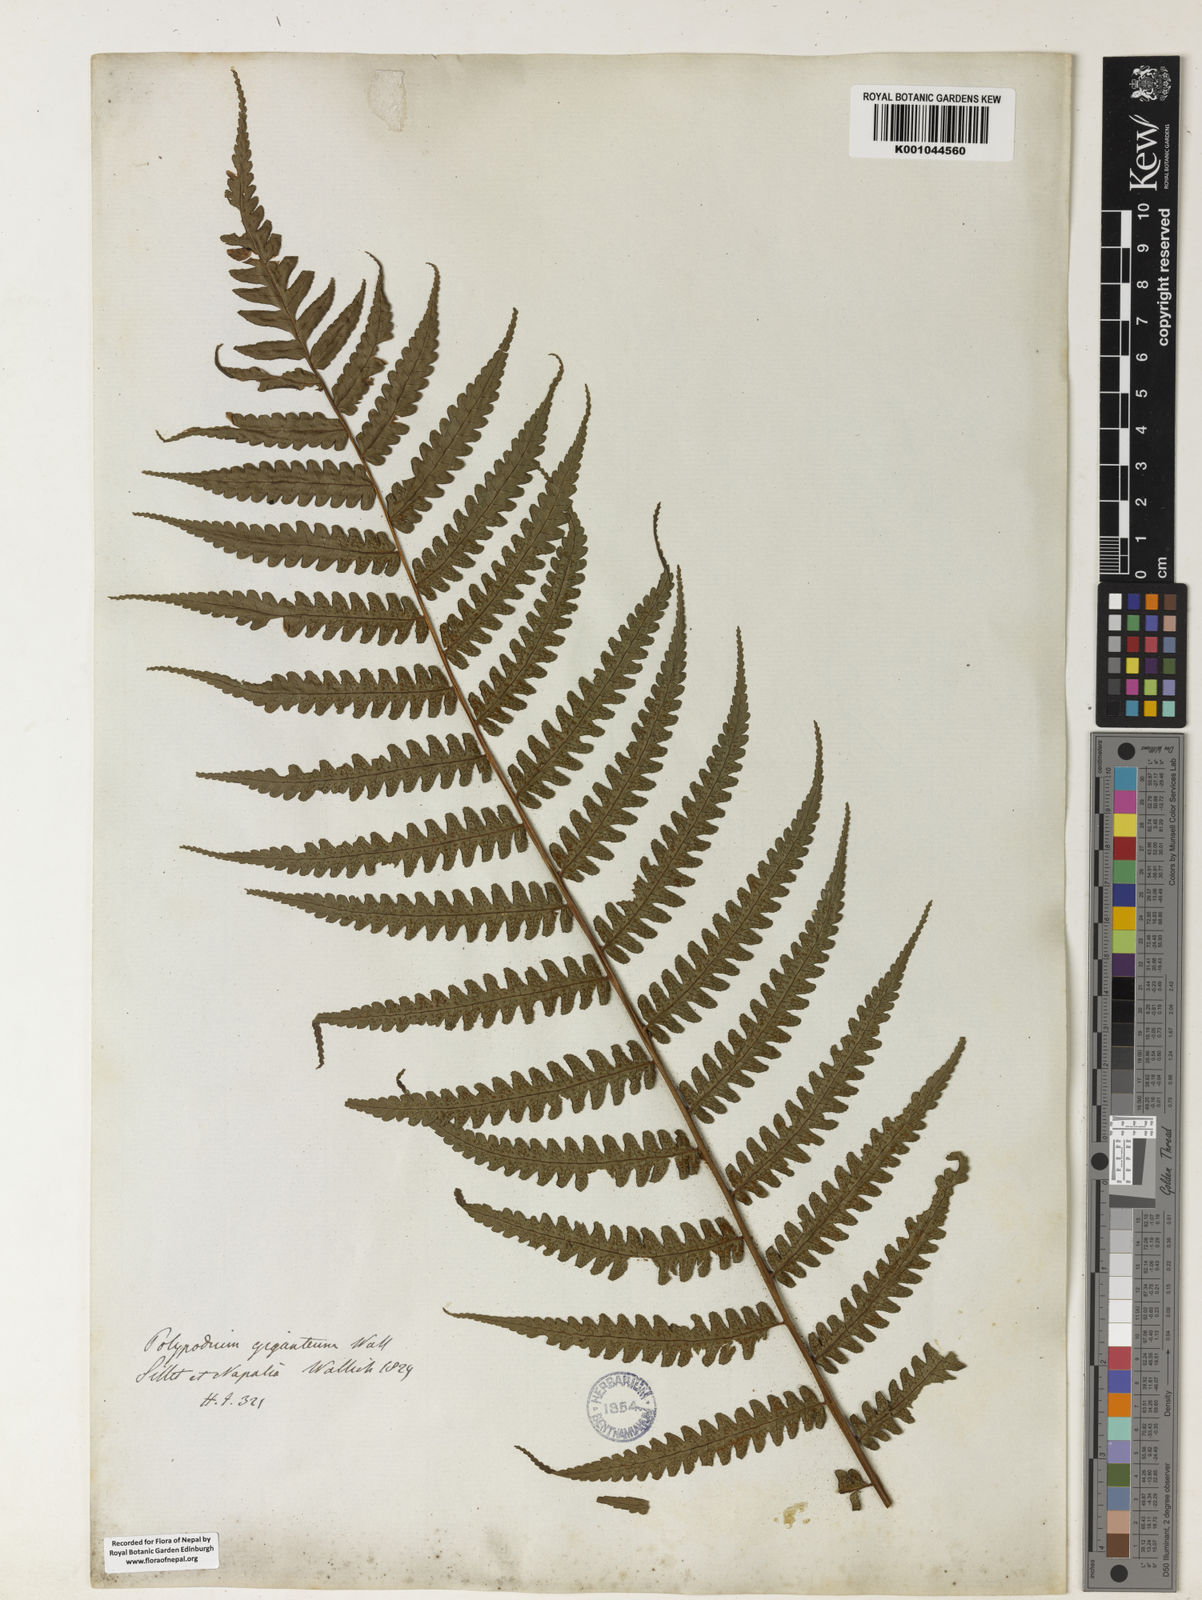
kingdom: Plantae
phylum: Tracheophyta
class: Polypodiopsida
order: Cyatheales
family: Cyatheaceae
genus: Gymnosphaera
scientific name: Gymnosphaera gigantea
